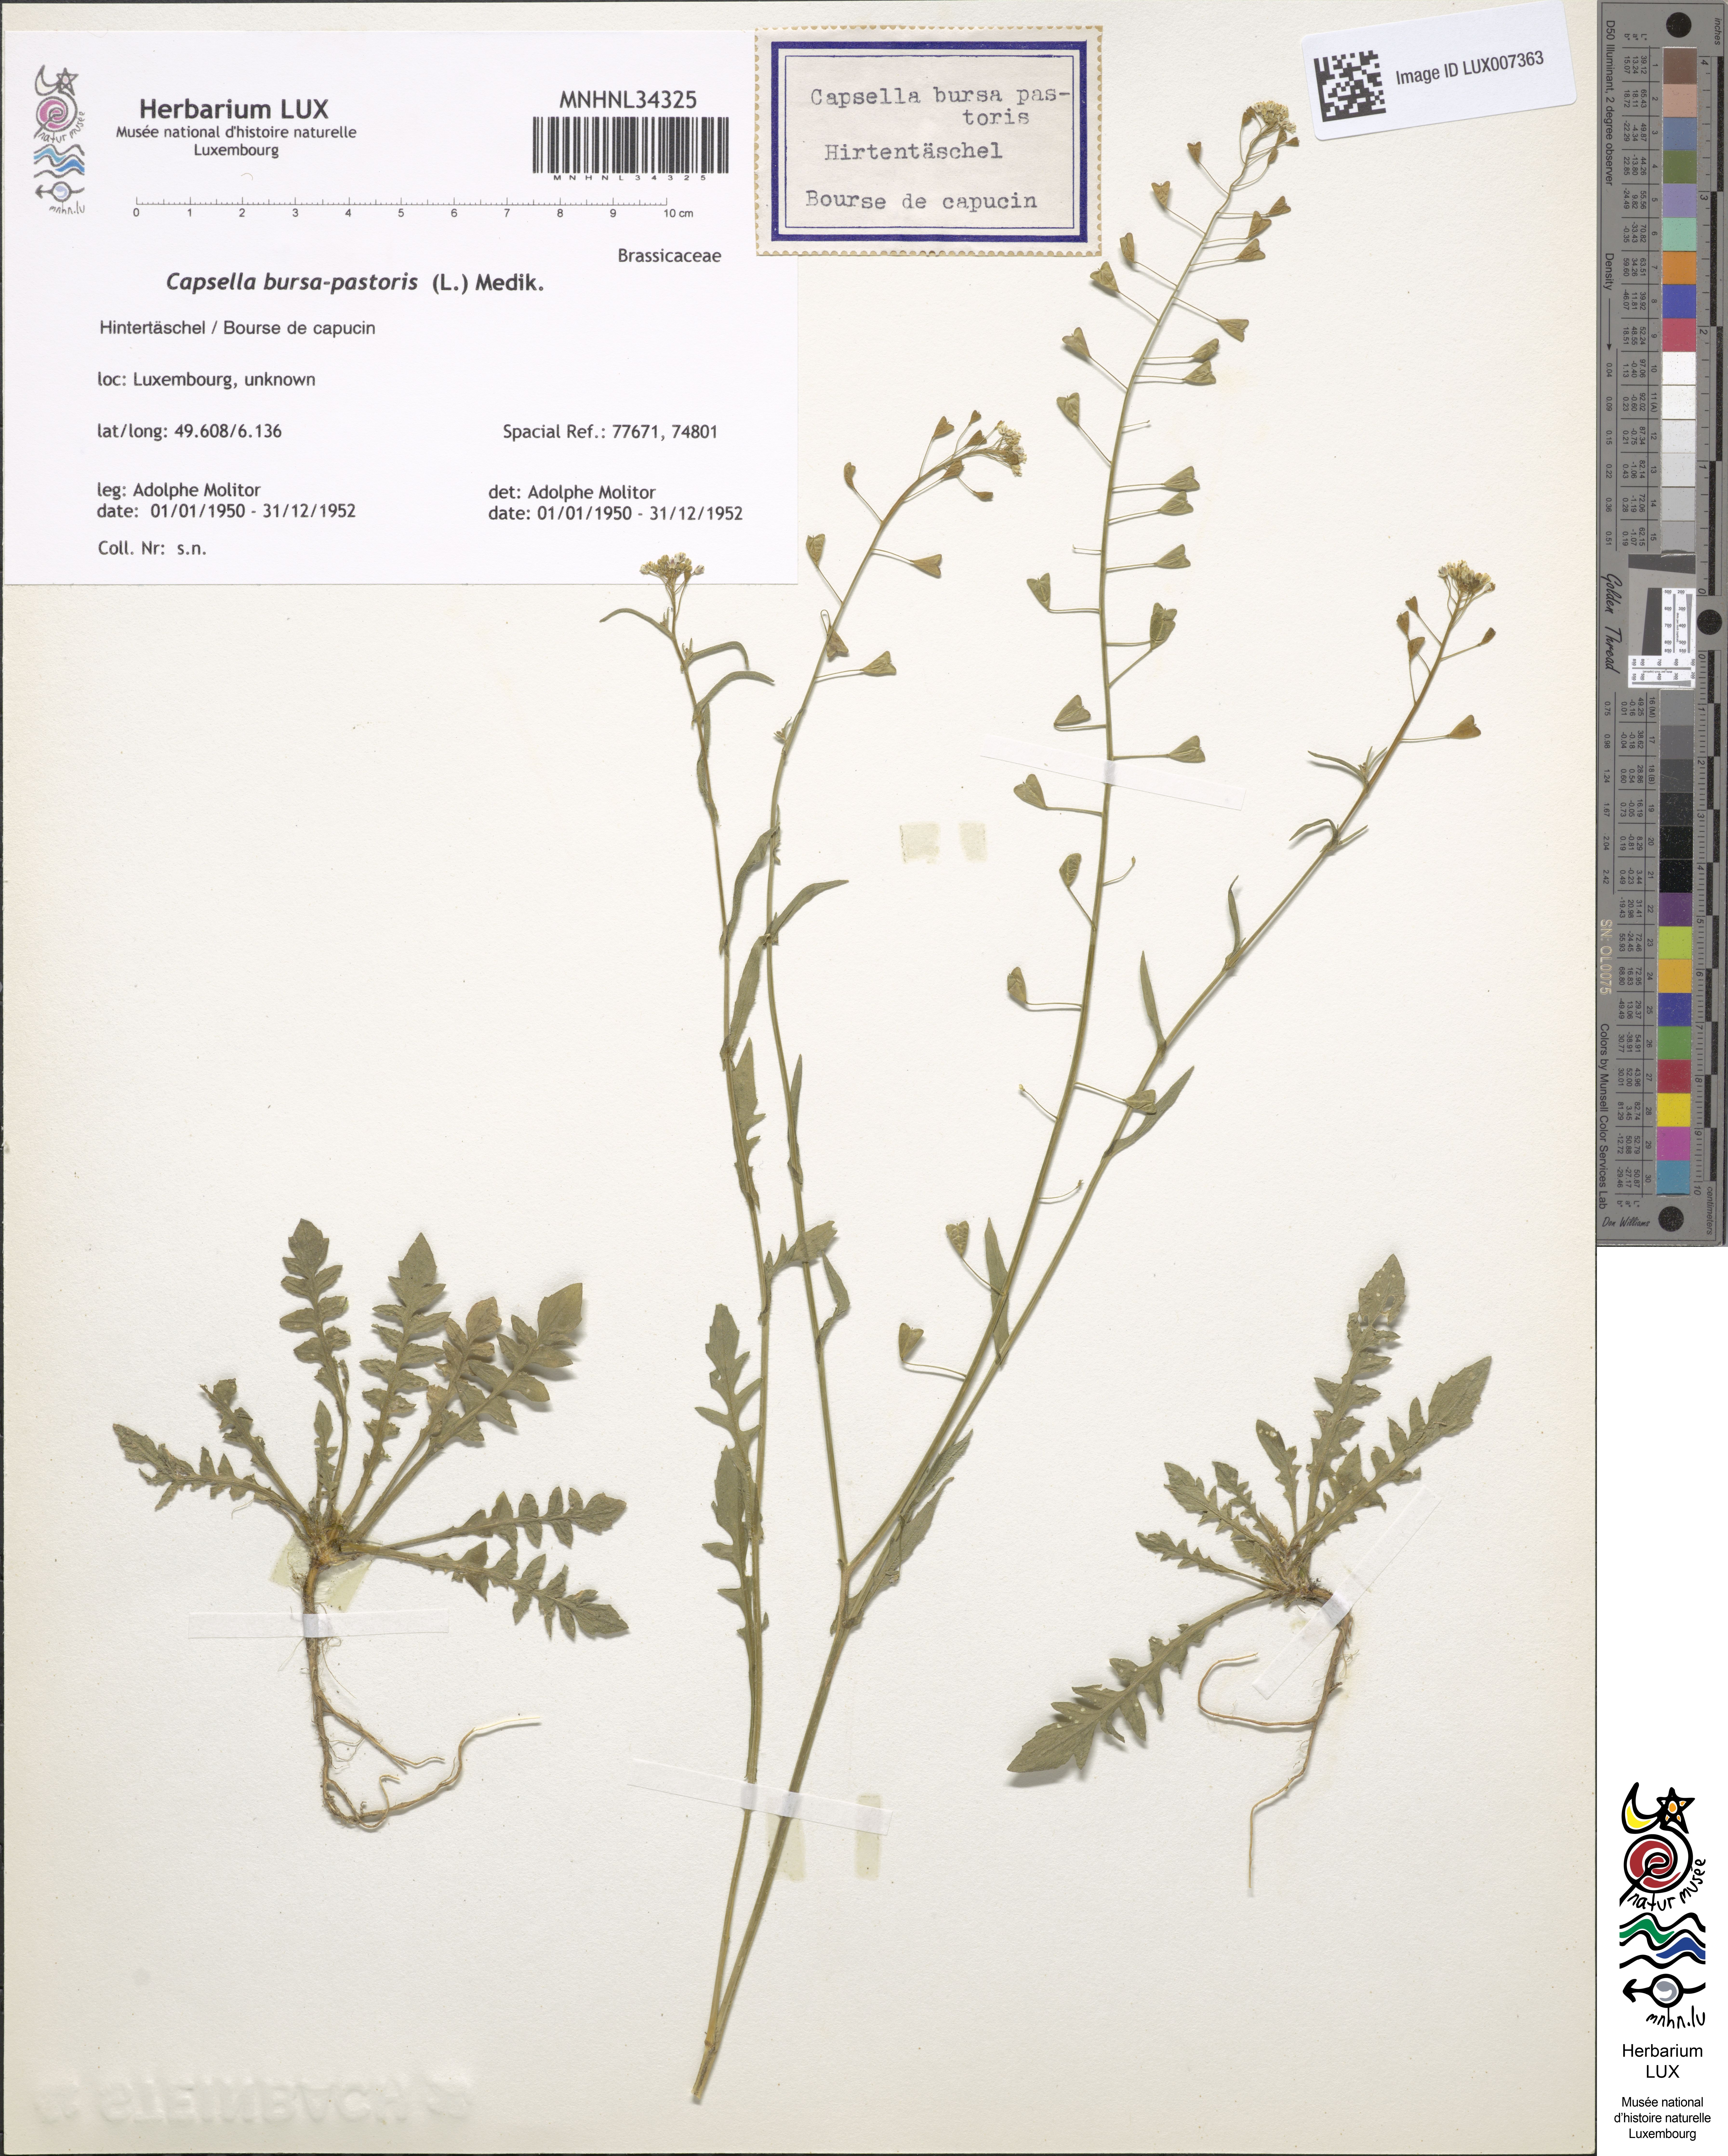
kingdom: Plantae
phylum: Tracheophyta
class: Magnoliopsida
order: Brassicales
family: Brassicaceae
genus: Capsella
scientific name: Capsella bursa-pastoris
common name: Shepherd's purse
